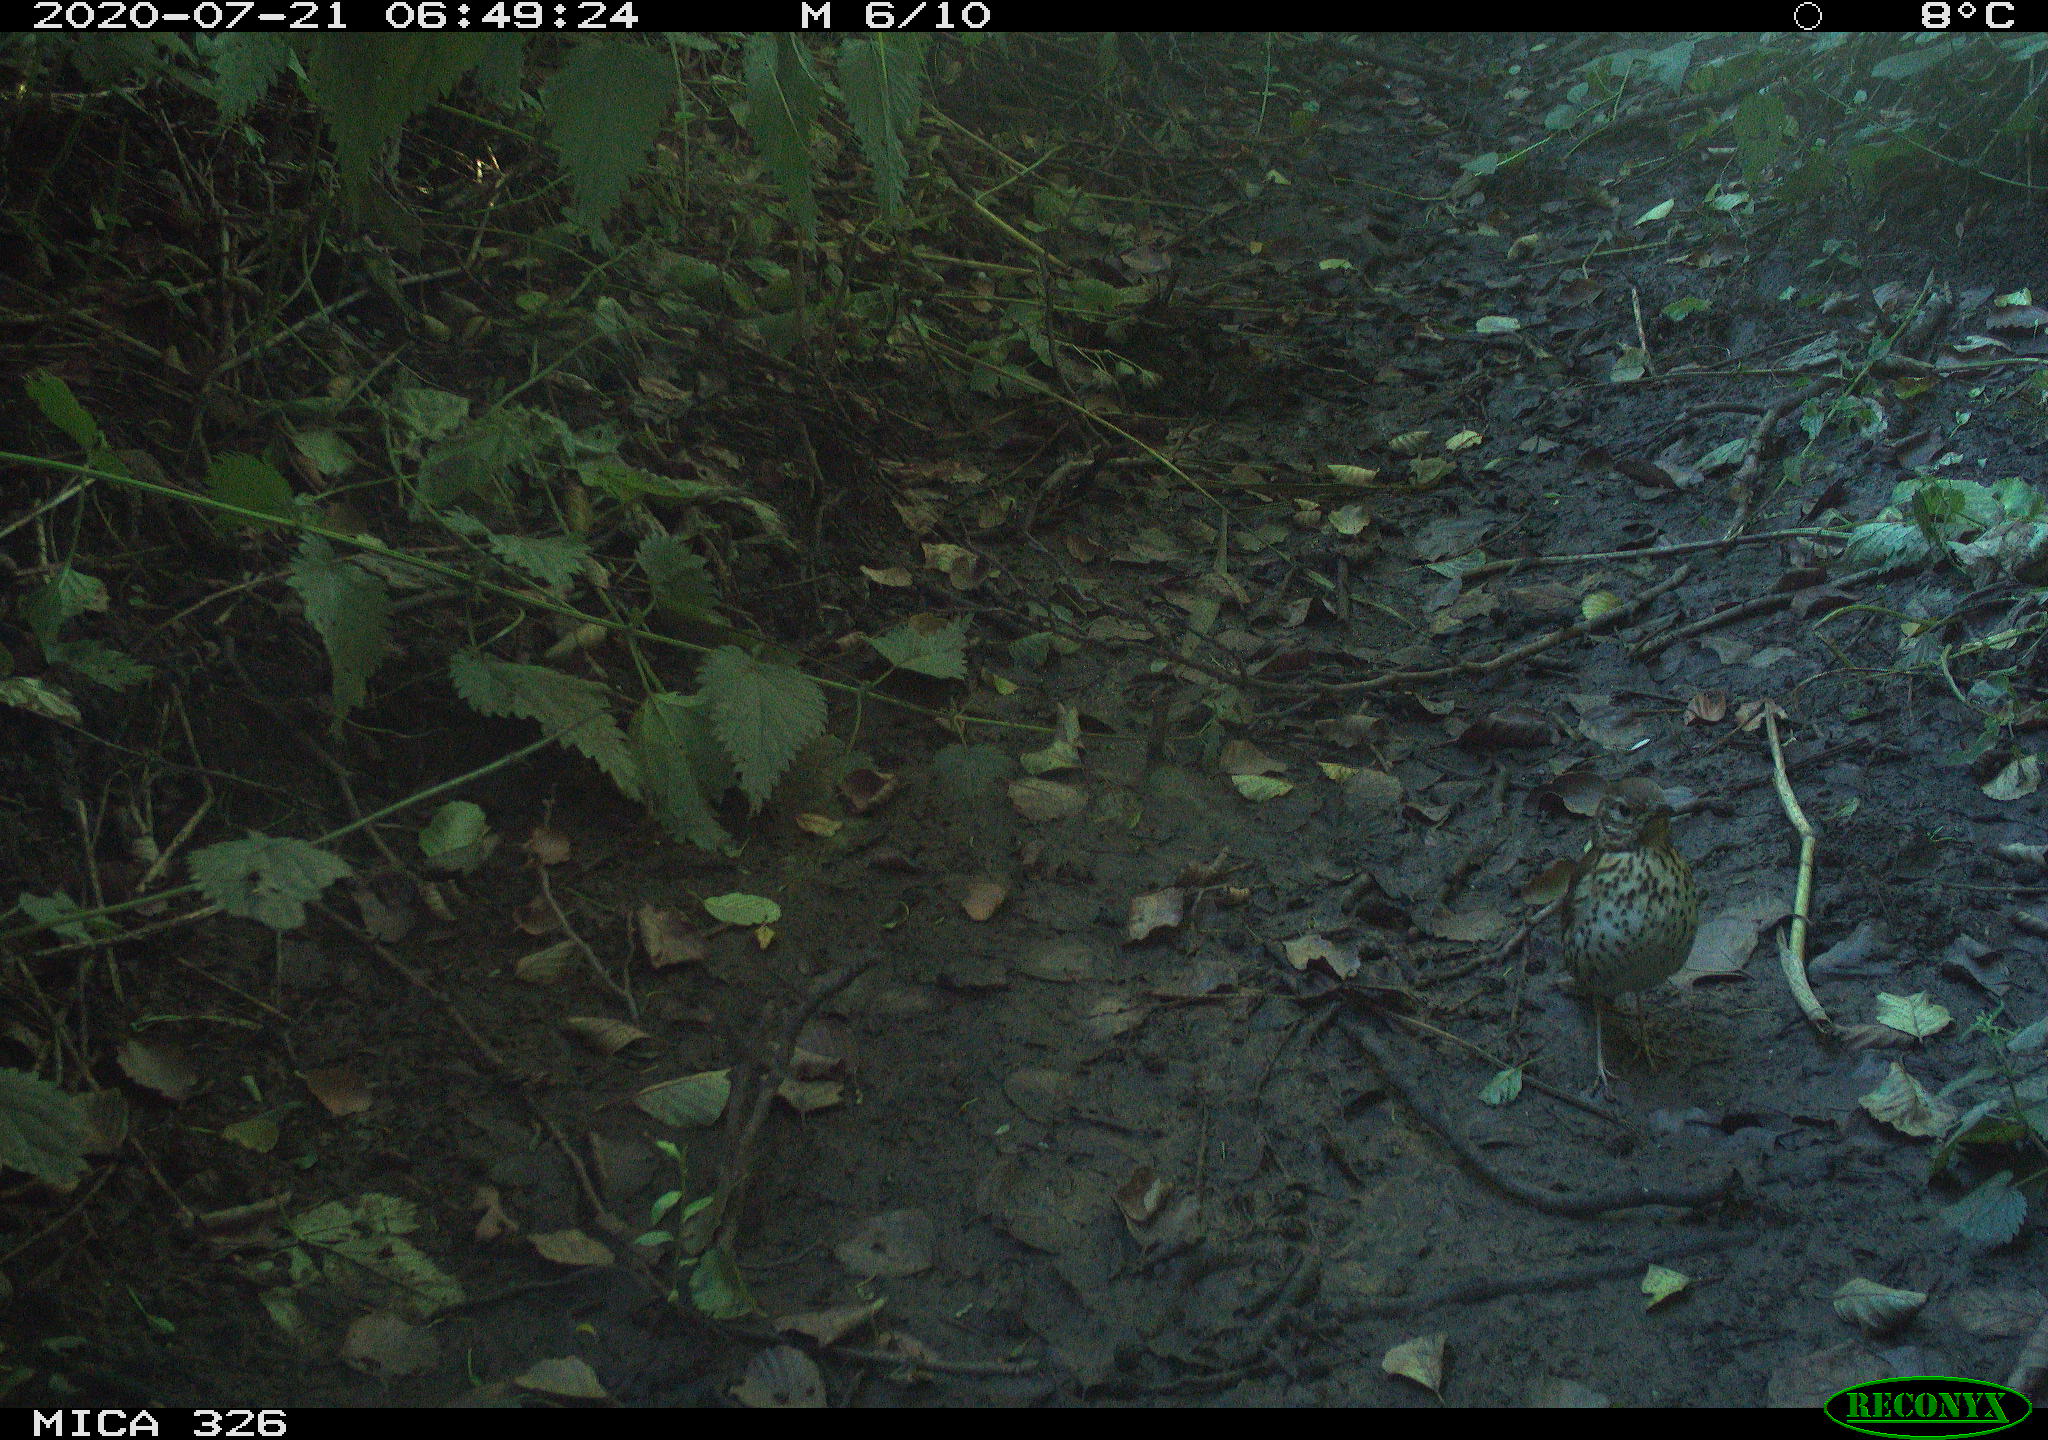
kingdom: Animalia
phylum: Chordata
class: Aves
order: Passeriformes
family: Turdidae
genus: Turdus
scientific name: Turdus philomelos
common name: Song thrush
